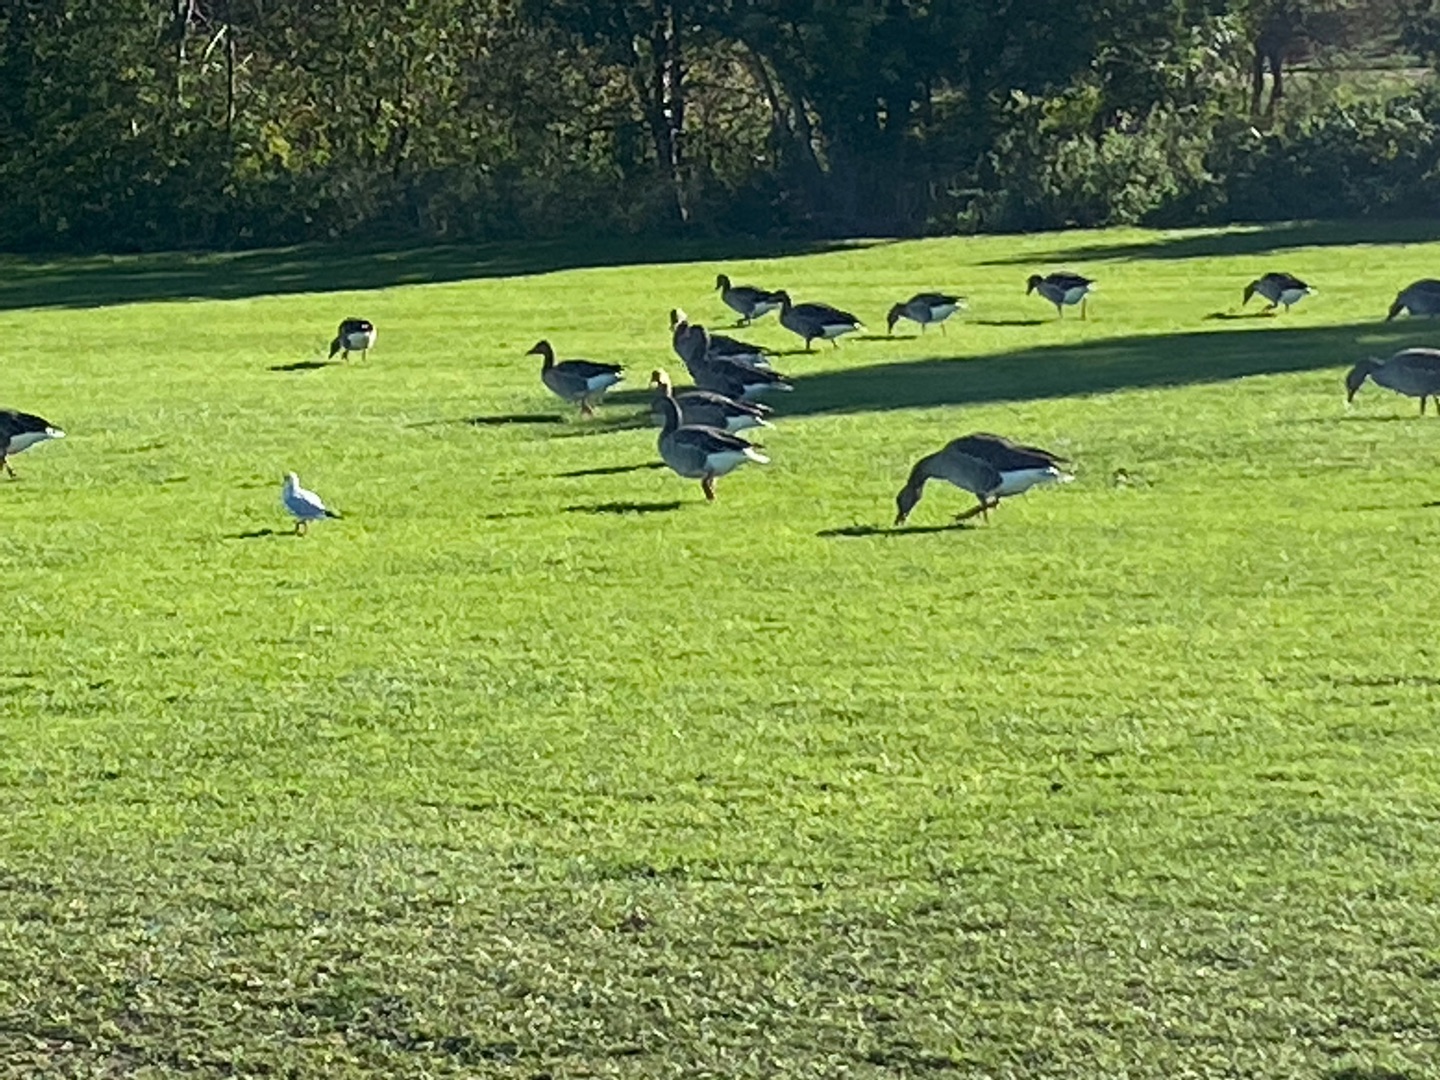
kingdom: Animalia
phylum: Chordata
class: Aves
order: Anseriformes
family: Anatidae
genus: Anser
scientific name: Anser anser
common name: Grågås
